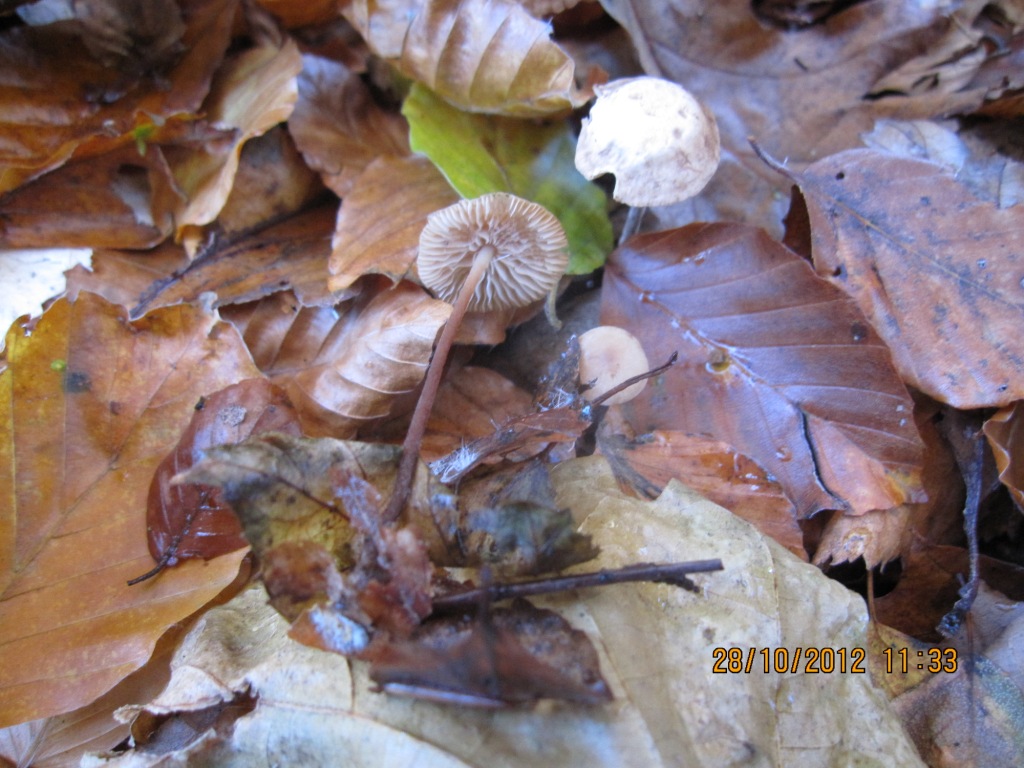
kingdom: Fungi
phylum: Basidiomycota
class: Agaricomycetes
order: Agaricales
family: Omphalotaceae
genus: Mycetinis
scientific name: Mycetinis querceus
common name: ege-løghat
